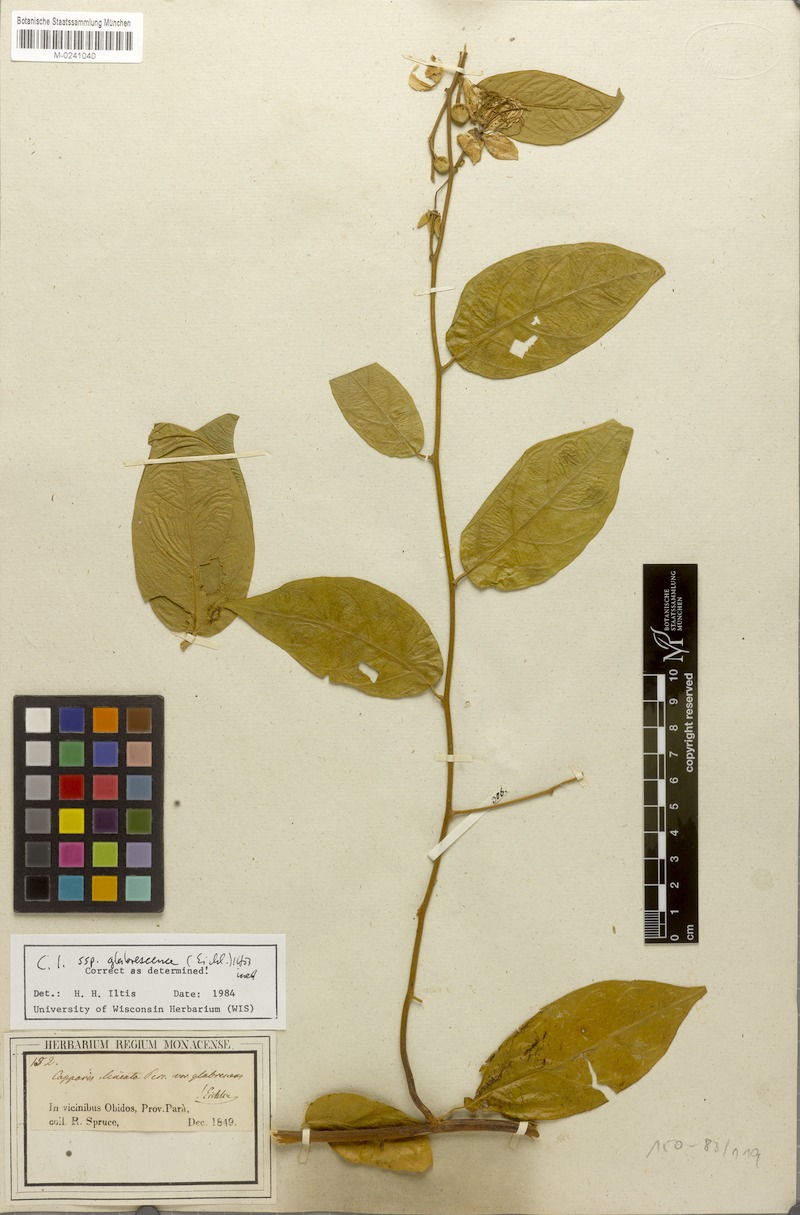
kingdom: Plantae
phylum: Tracheophyta
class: Magnoliopsida
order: Brassicales
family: Capparaceae
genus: Mesocapparis
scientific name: Mesocapparis lineata
